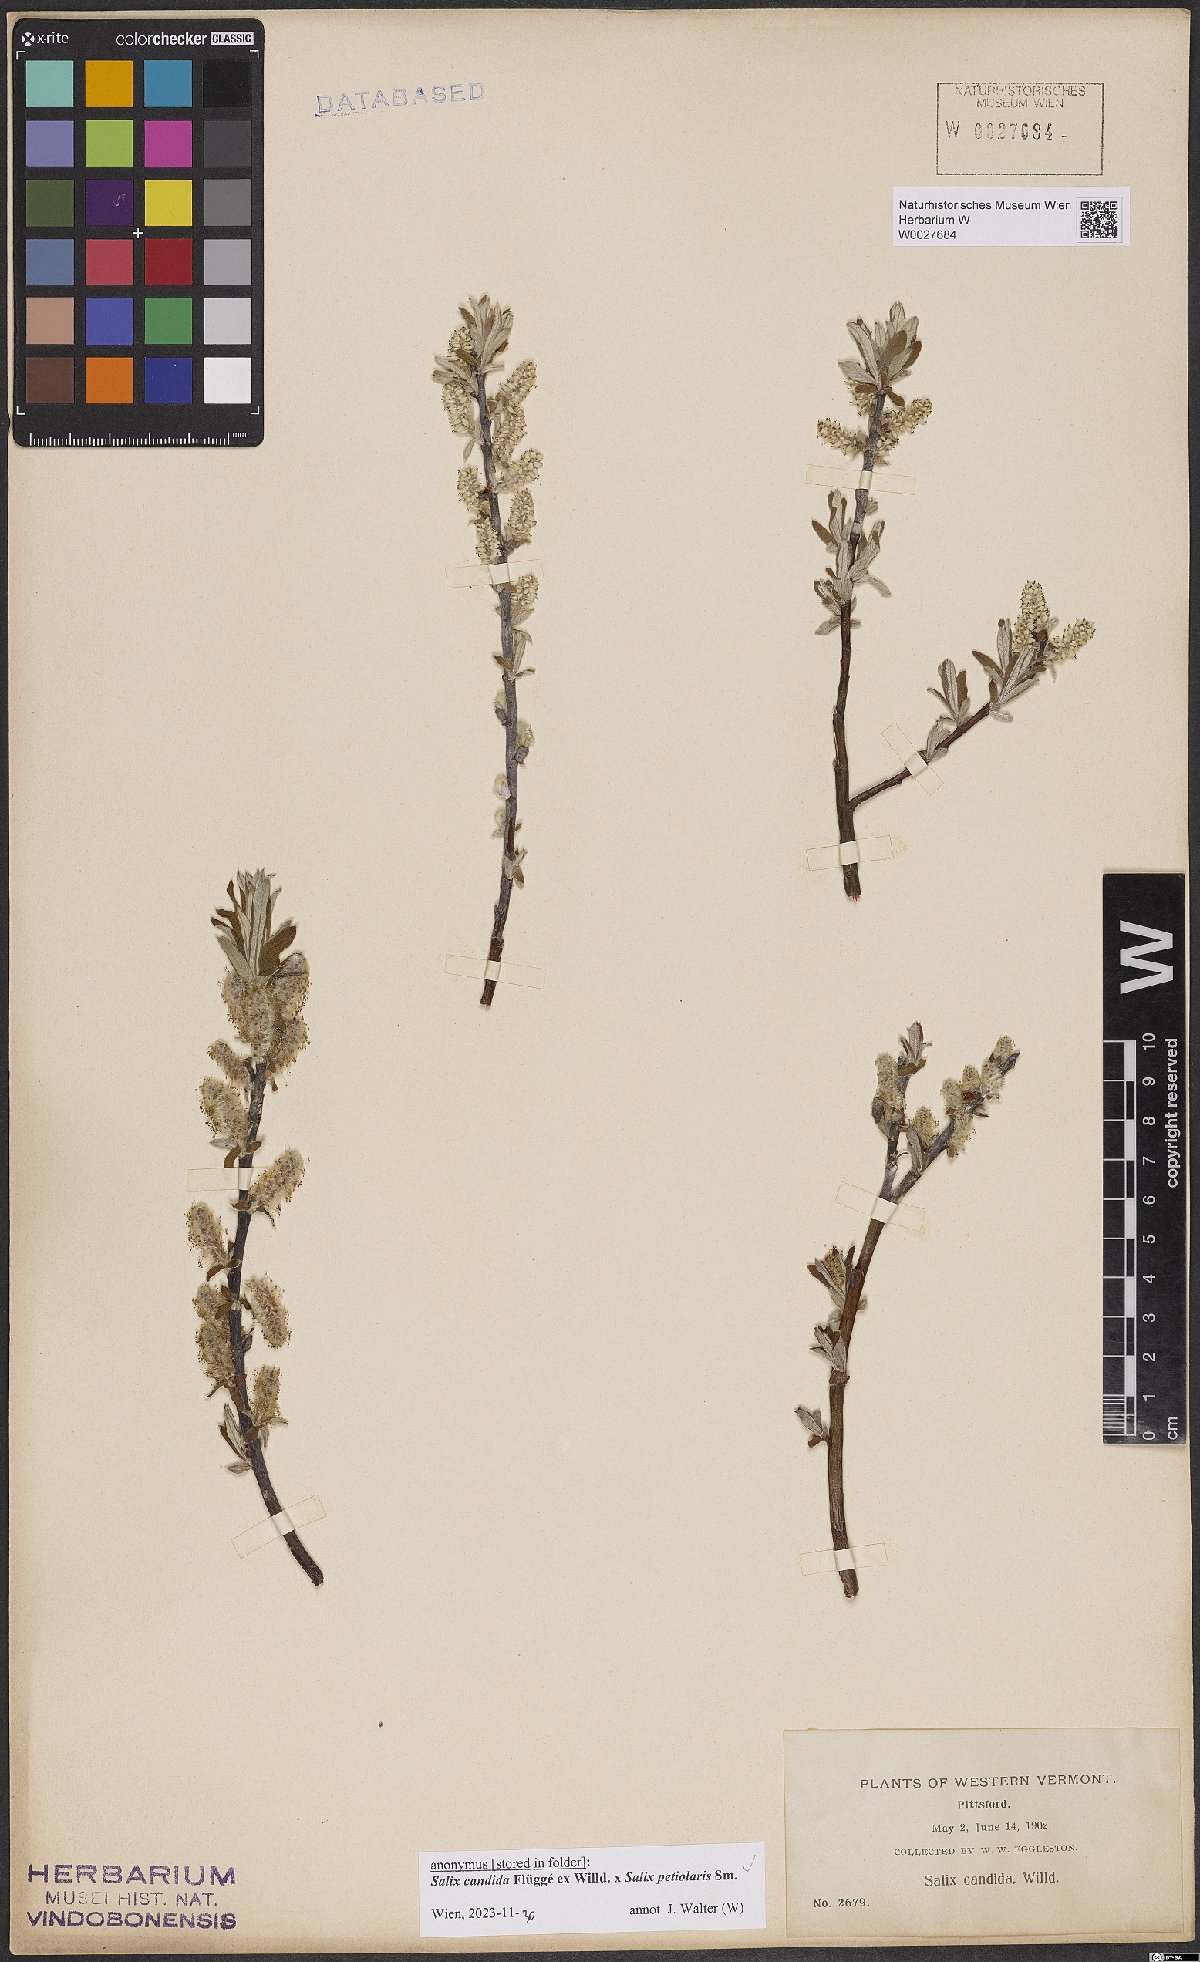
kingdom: Plantae
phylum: Tracheophyta
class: Magnoliopsida
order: Malpighiales
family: Salicaceae
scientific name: Salicaceae
